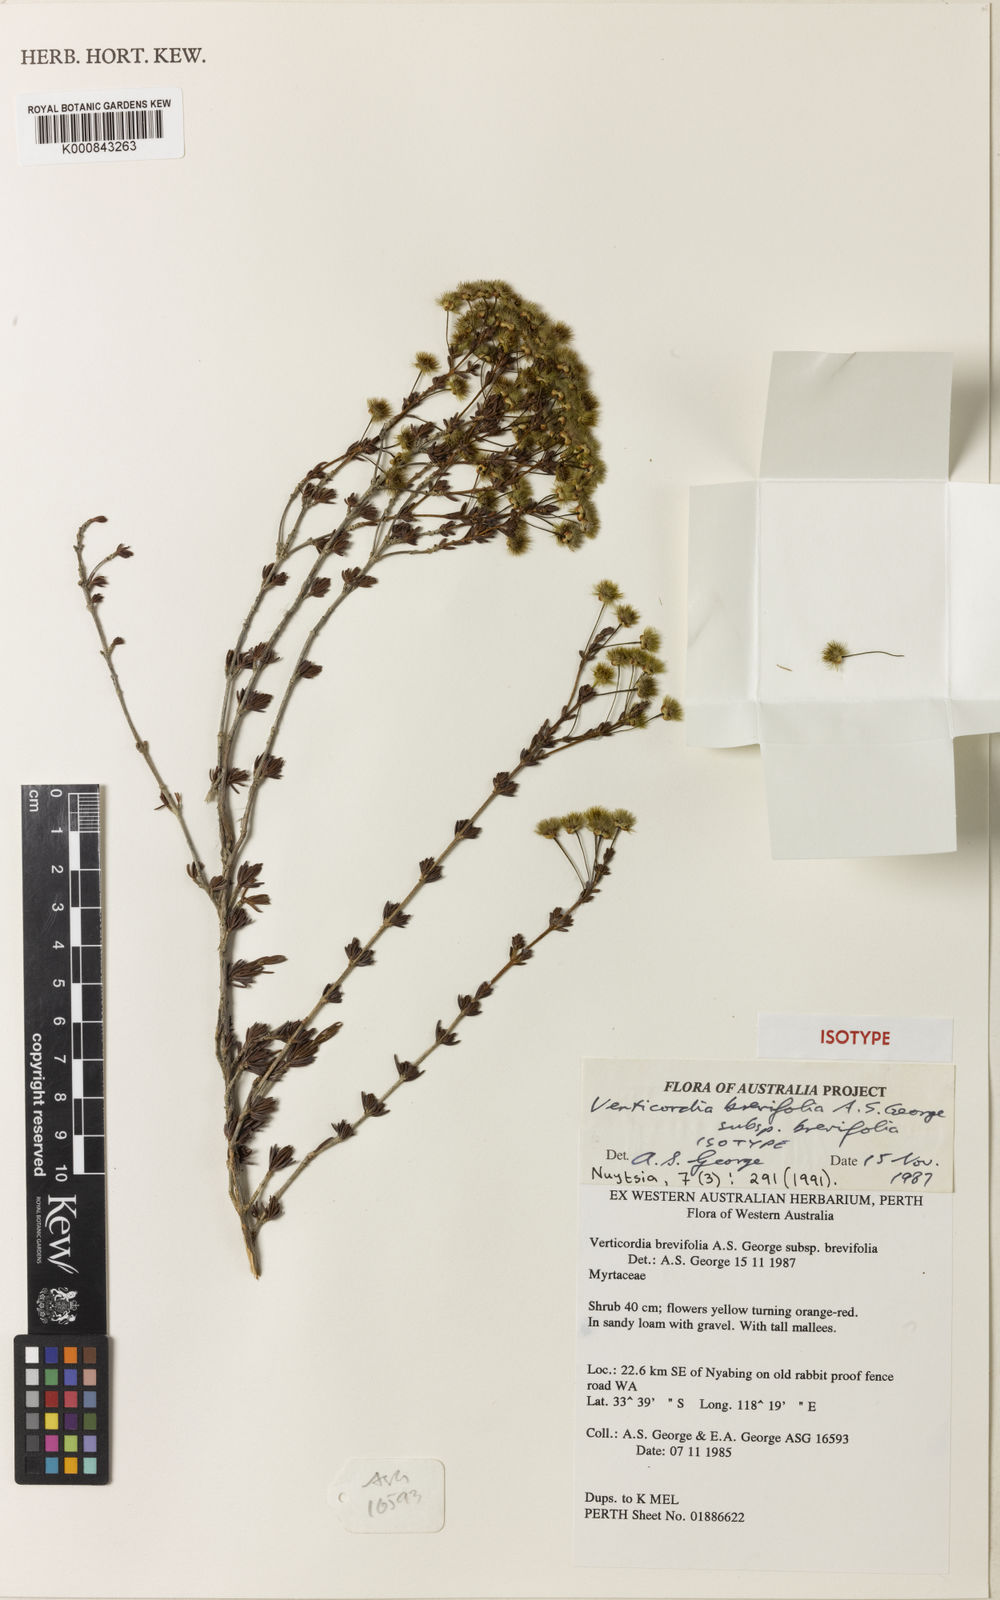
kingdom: Plantae
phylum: Tracheophyta
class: Magnoliopsida
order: Myrtales
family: Myrtaceae
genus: Verticordia
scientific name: Verticordia brevifolia
